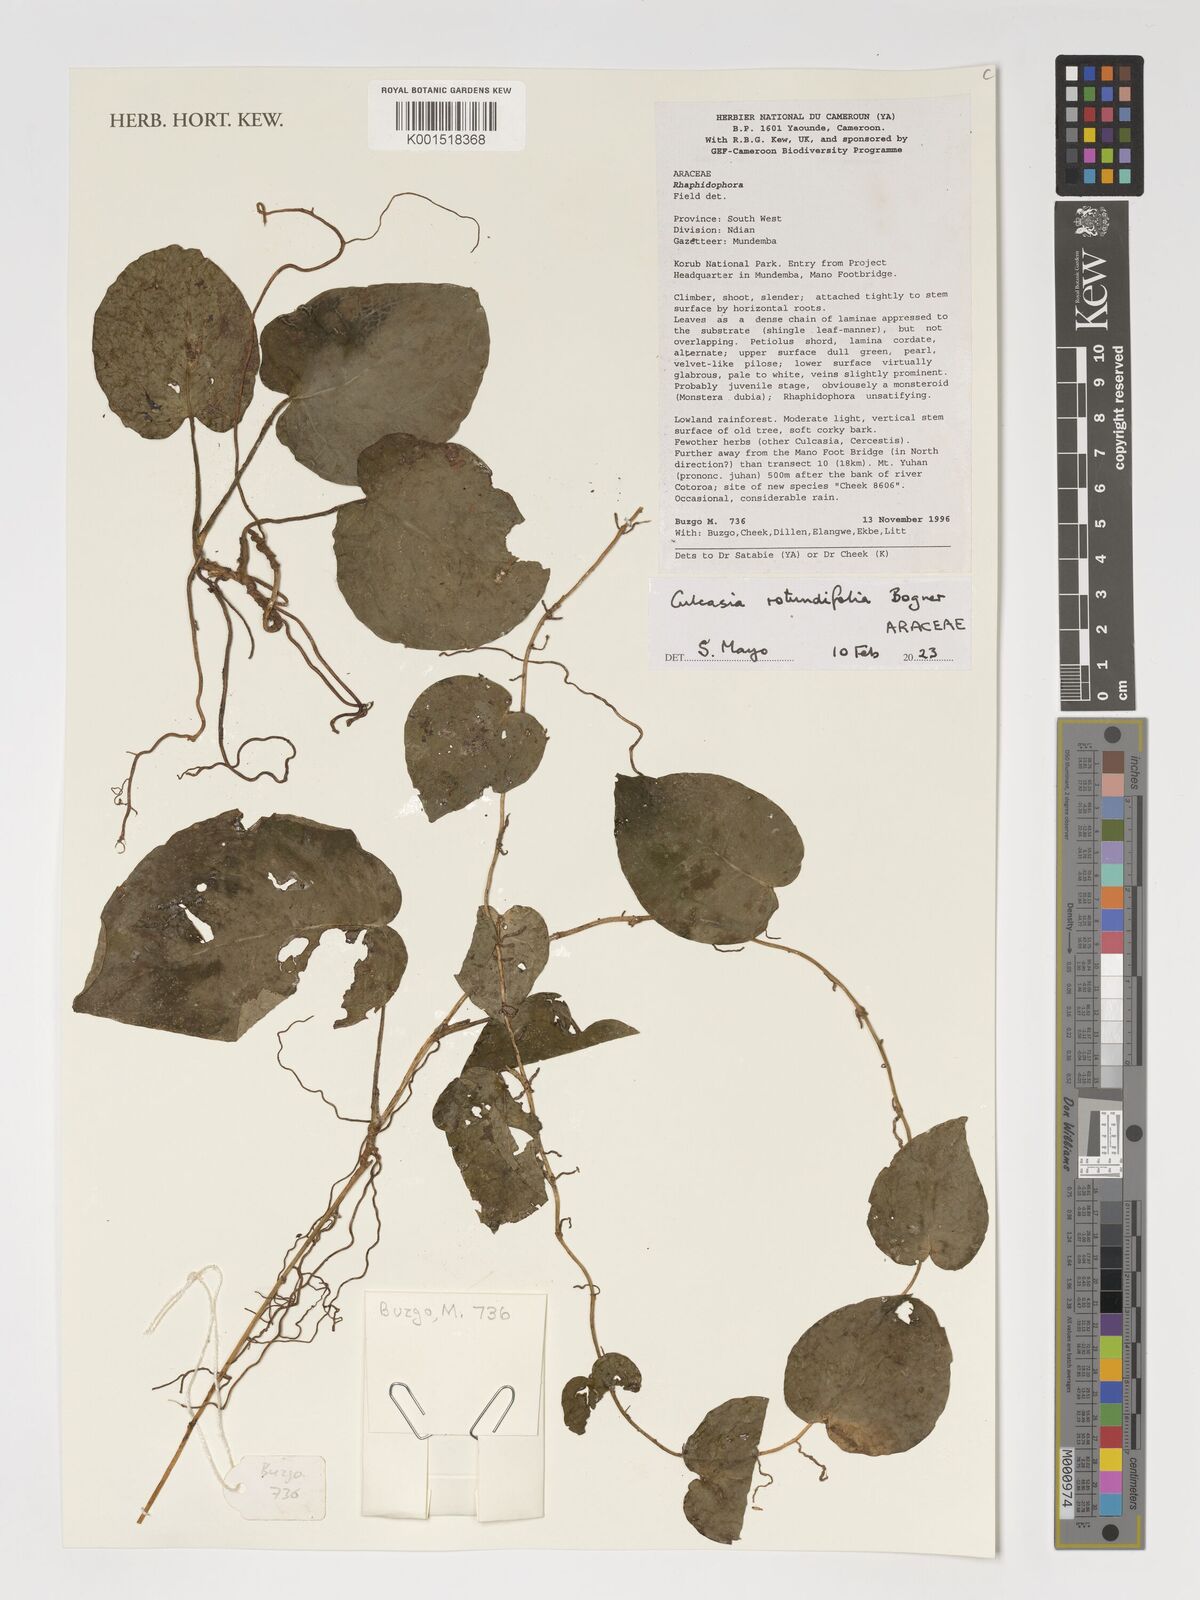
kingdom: Plantae
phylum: Tracheophyta
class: Liliopsida
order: Alismatales
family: Araceae
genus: Culcasia
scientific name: Culcasia rotundifolia
